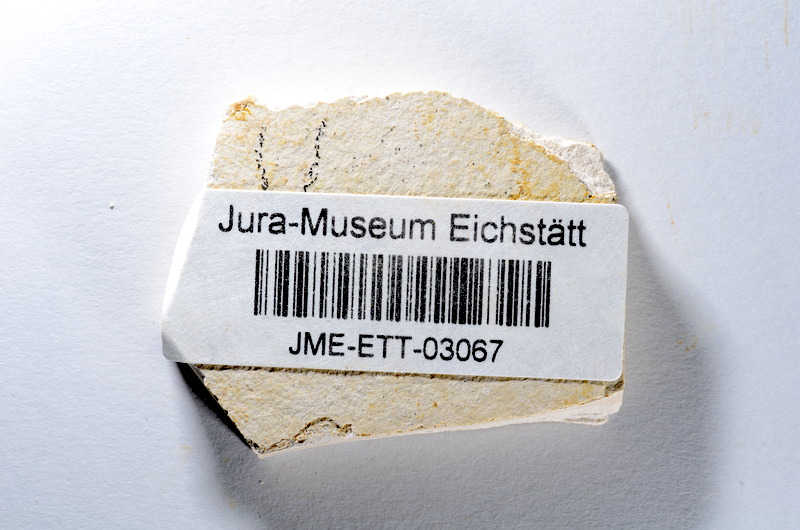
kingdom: Animalia
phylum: Chordata
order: Salmoniformes
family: Orthogonikleithridae
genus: Orthogonikleithrus
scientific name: Orthogonikleithrus hoelli
